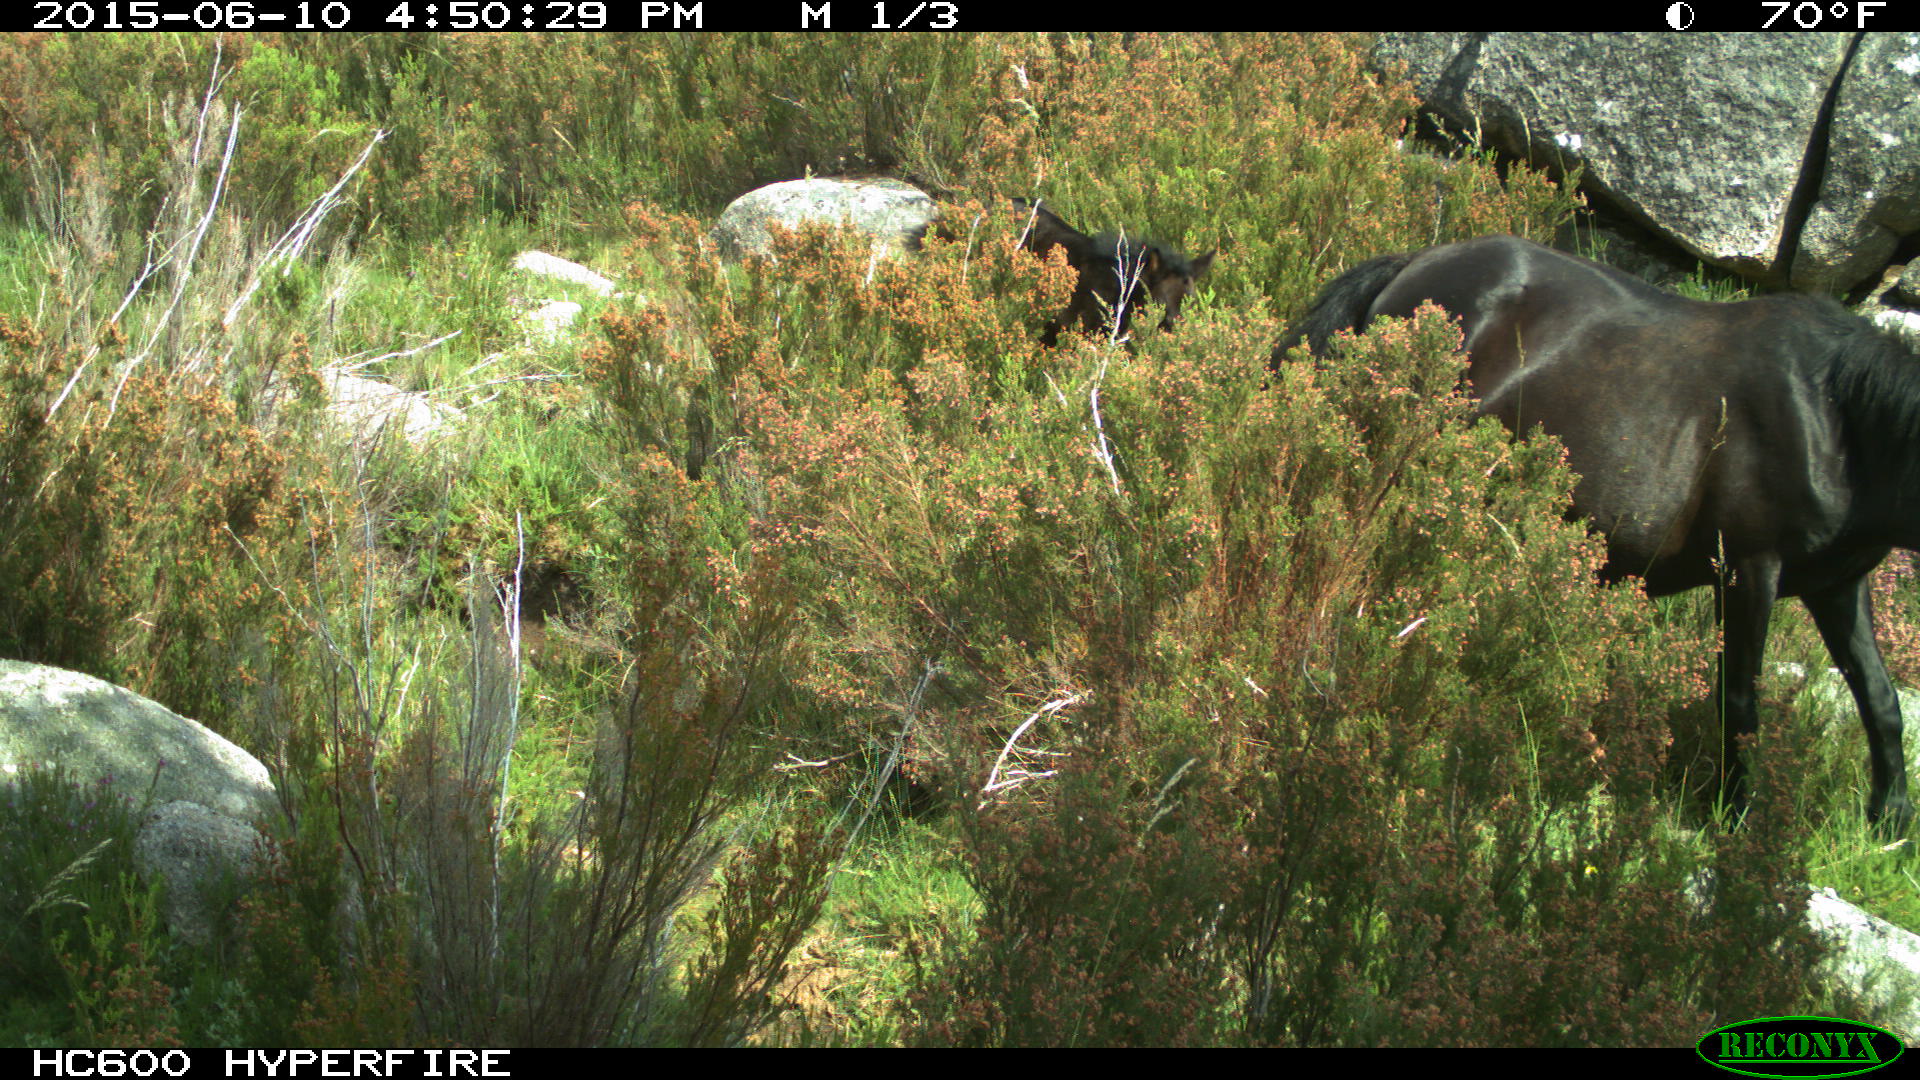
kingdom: Animalia
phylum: Chordata
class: Mammalia
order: Perissodactyla
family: Equidae
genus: Equus
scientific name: Equus caballus
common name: Horse
